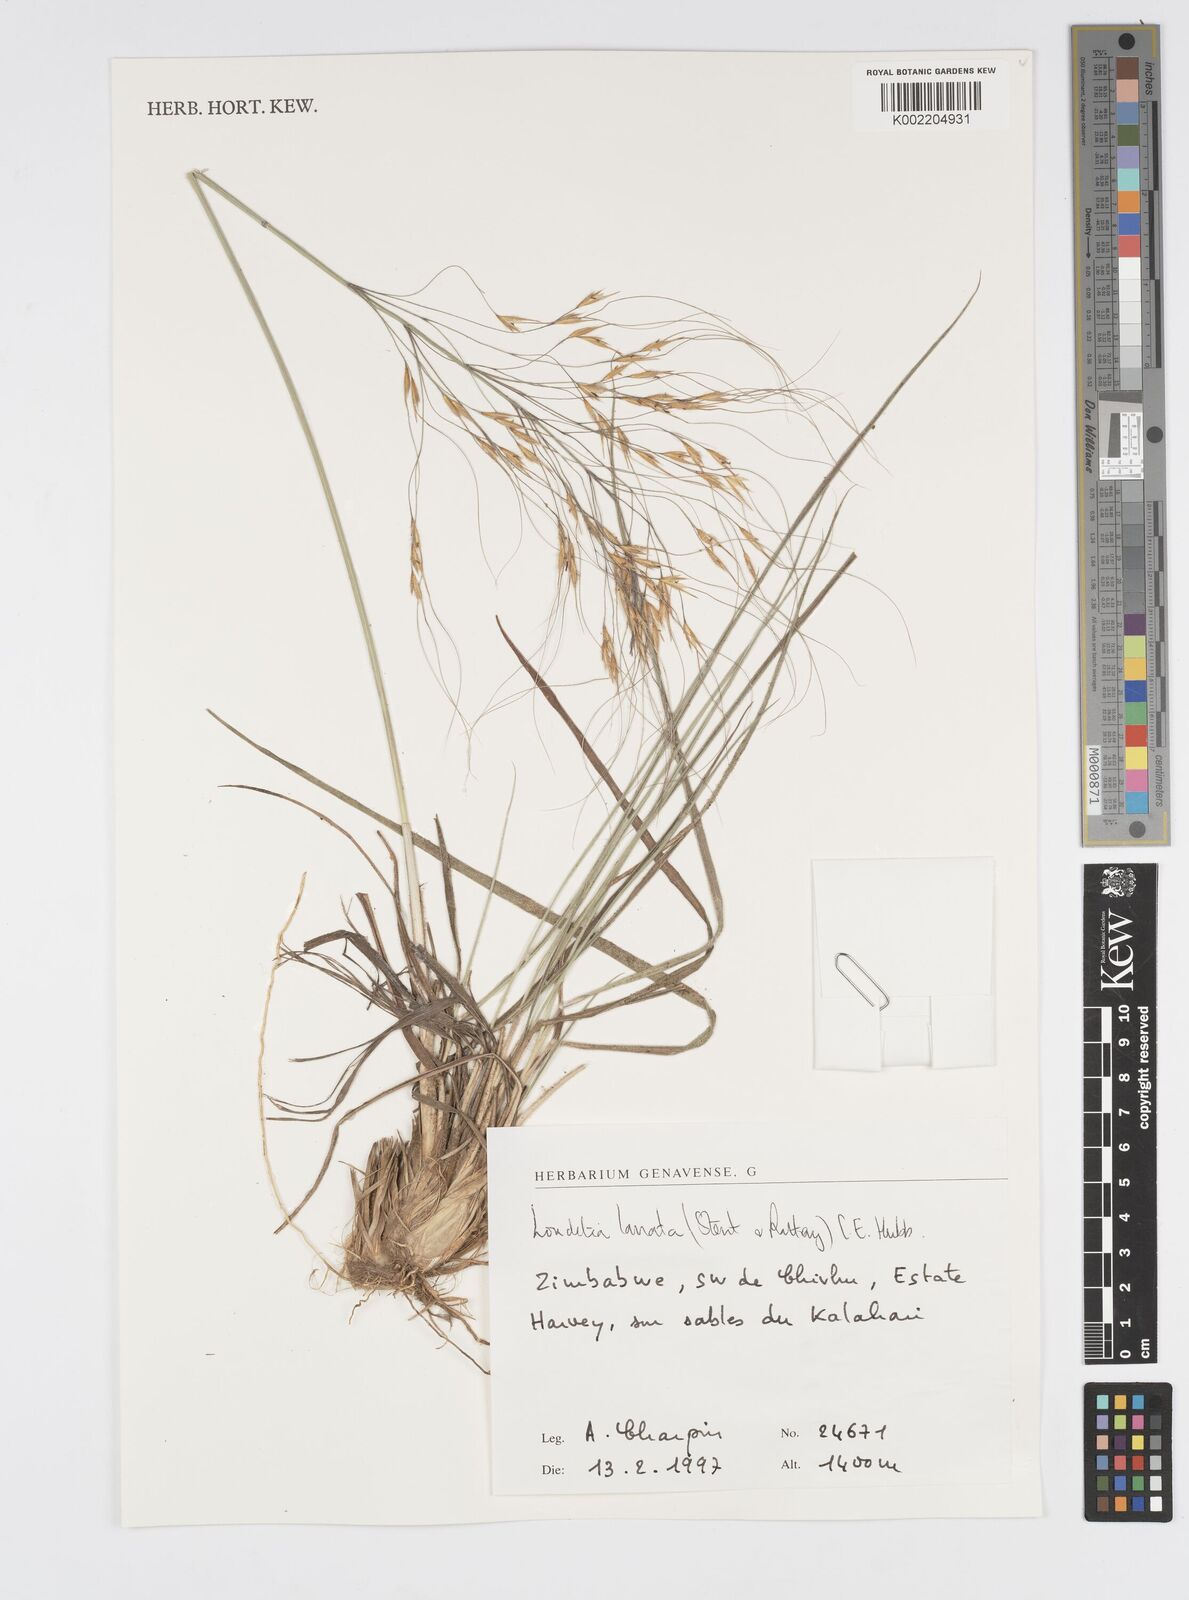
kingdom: Plantae
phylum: Tracheophyta
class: Liliopsida
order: Poales
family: Poaceae
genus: Loudetia
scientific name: Loudetia lanata
